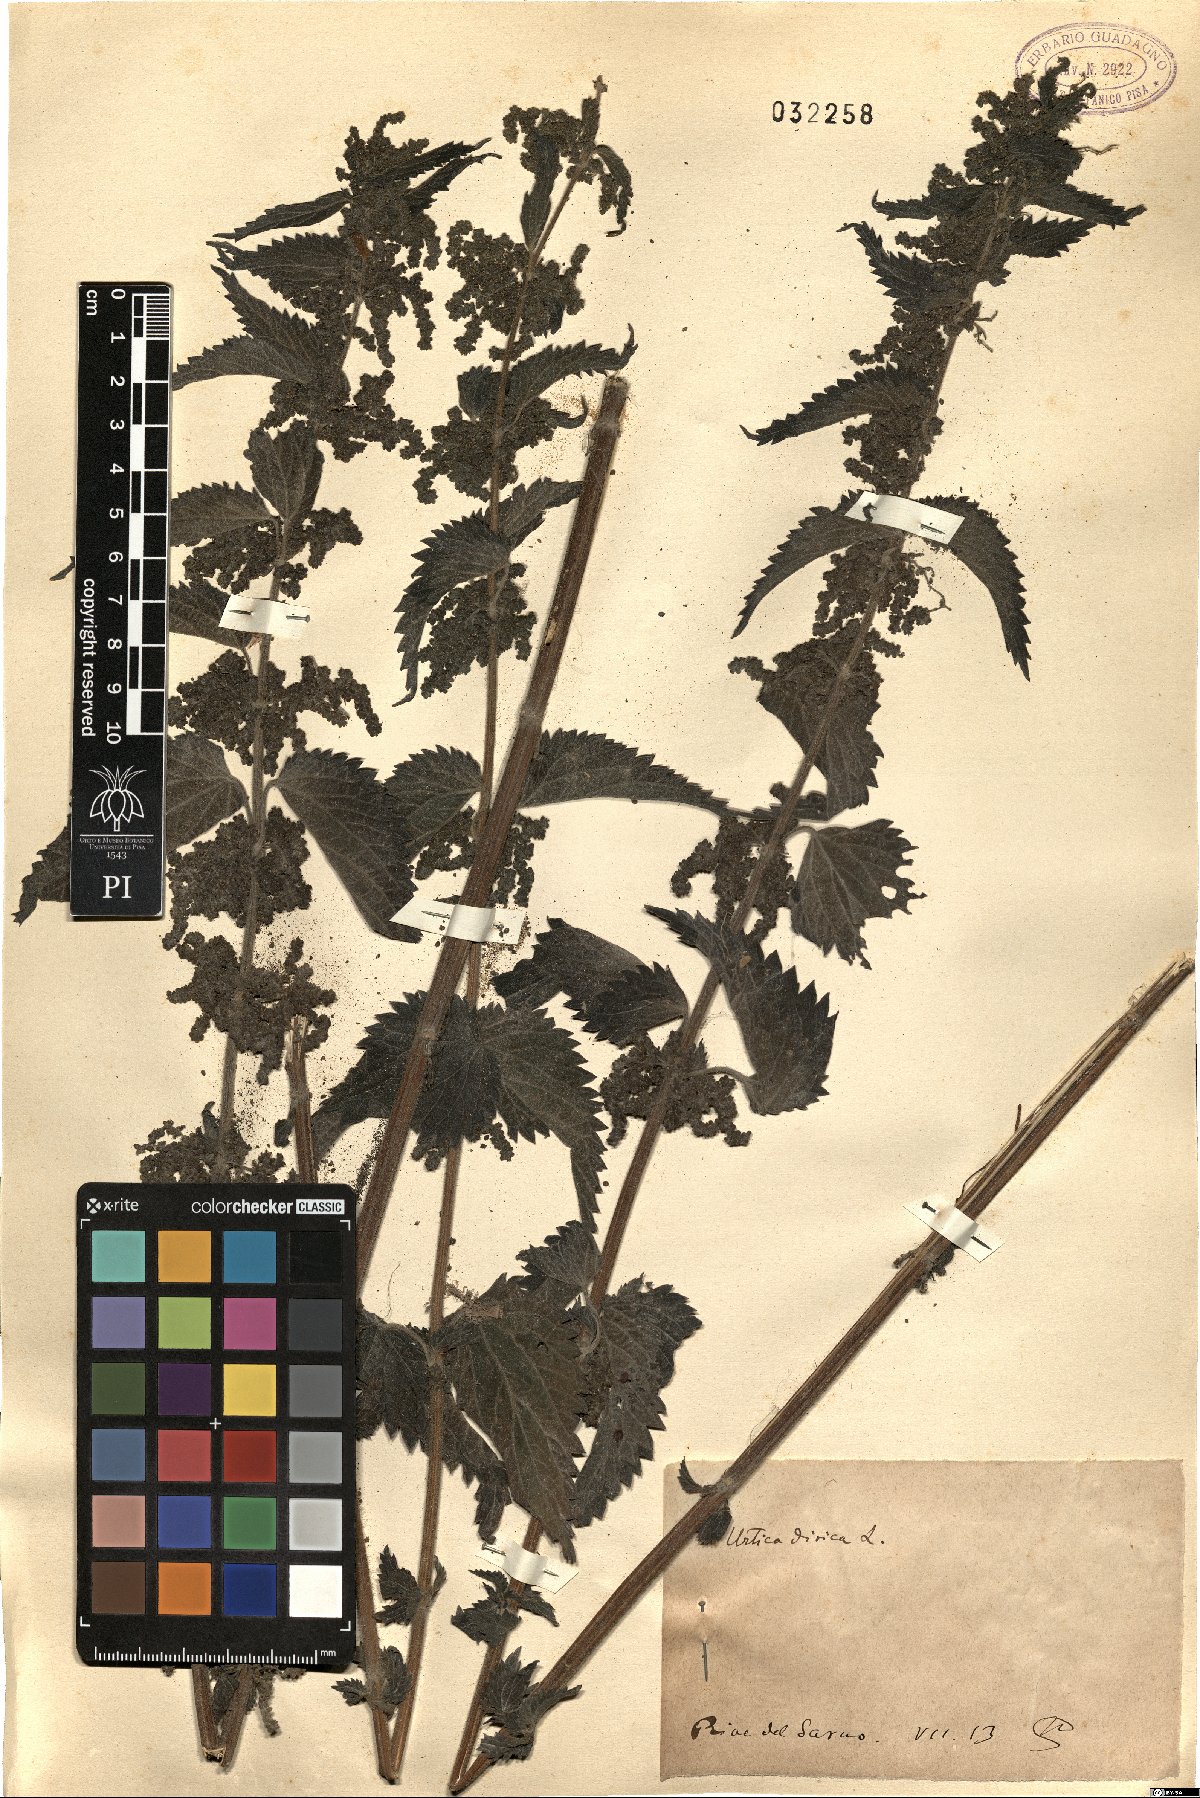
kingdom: Plantae
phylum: Tracheophyta
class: Magnoliopsida
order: Rosales
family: Urticaceae
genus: Urtica
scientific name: Urtica dioica
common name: Common nettle
